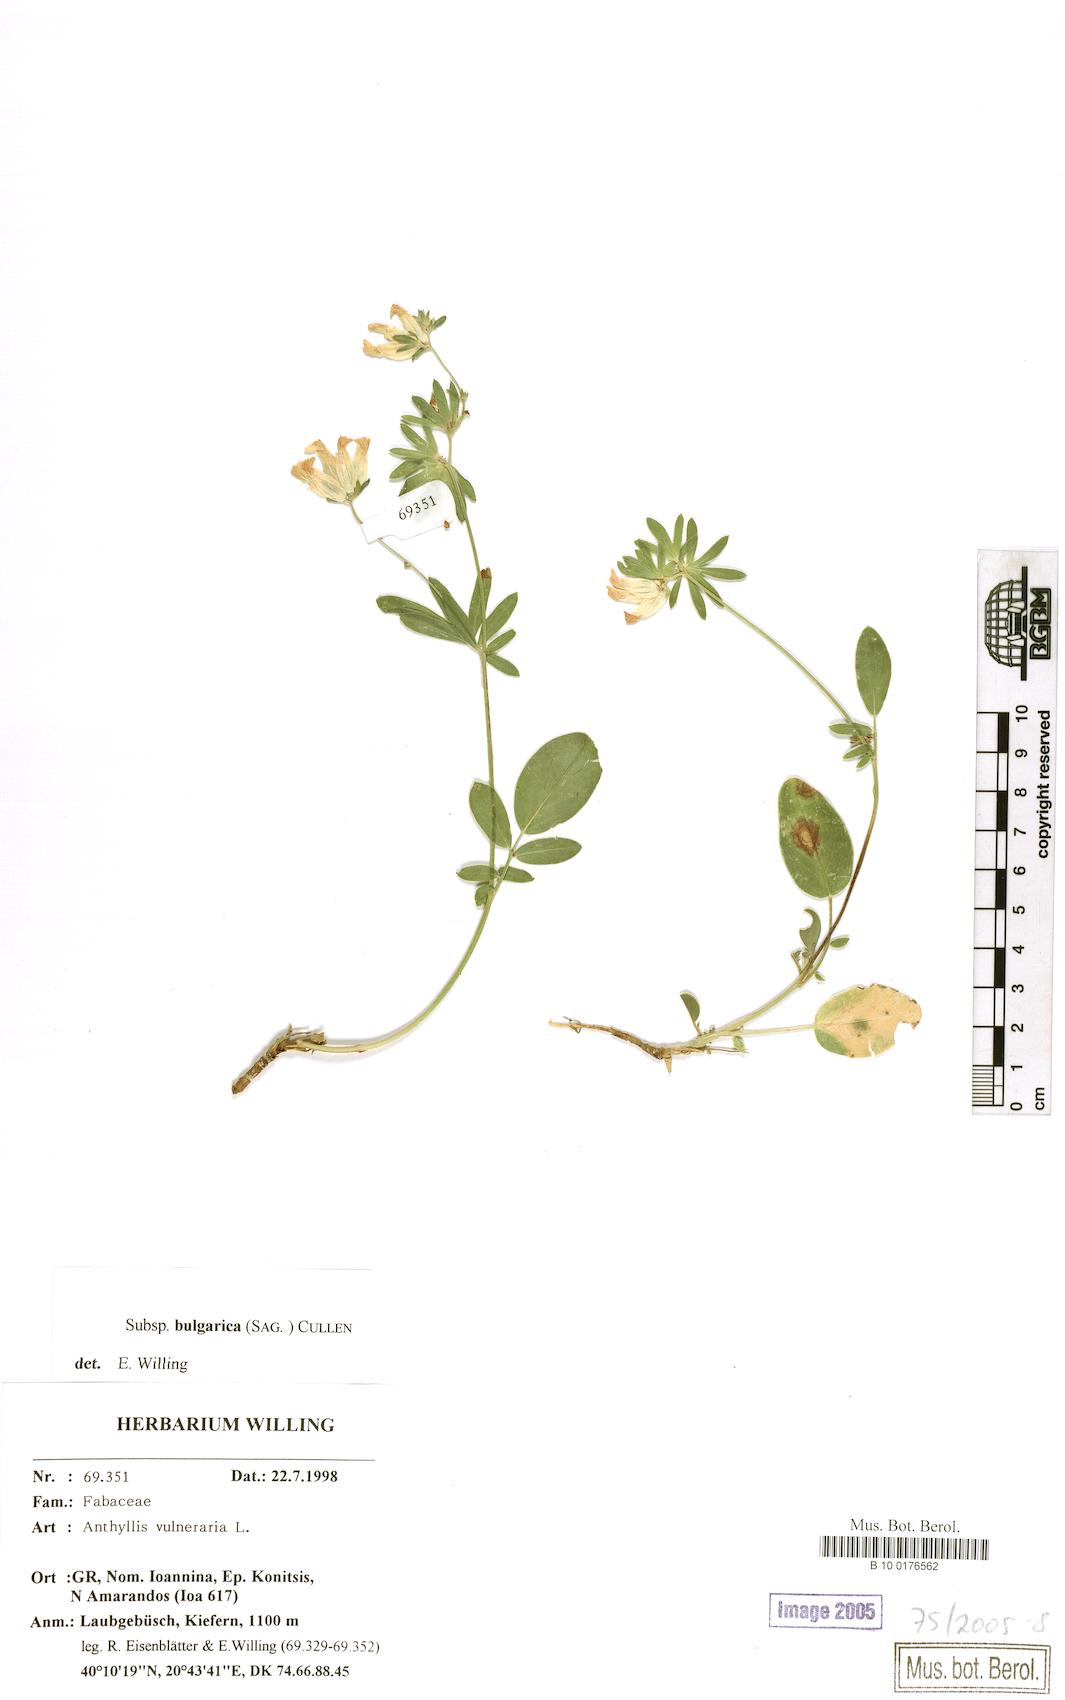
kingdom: Plantae
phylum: Tracheophyta
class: Magnoliopsida
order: Fabales
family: Fabaceae
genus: Anthyllis
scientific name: Anthyllis vulneraria
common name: Kidney vetch
